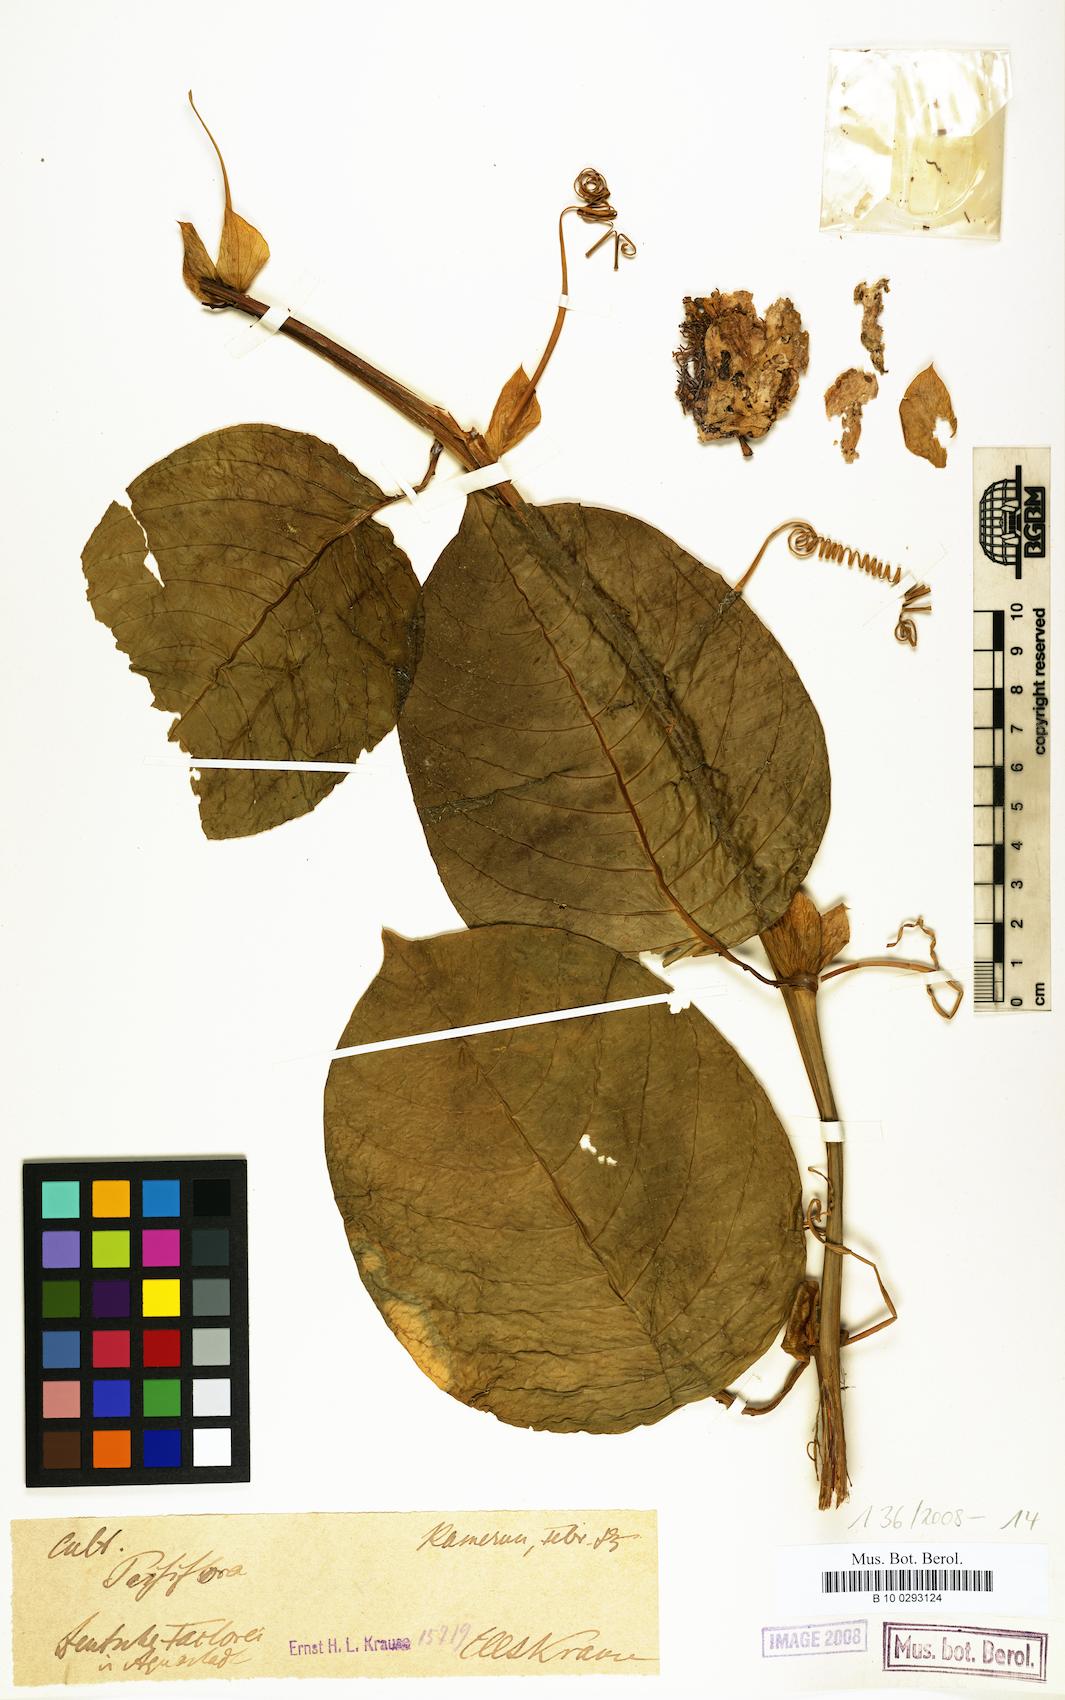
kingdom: Plantae
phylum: Tracheophyta
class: Magnoliopsida
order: Malpighiales
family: Passifloraceae
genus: Passiflora
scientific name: Passiflora
